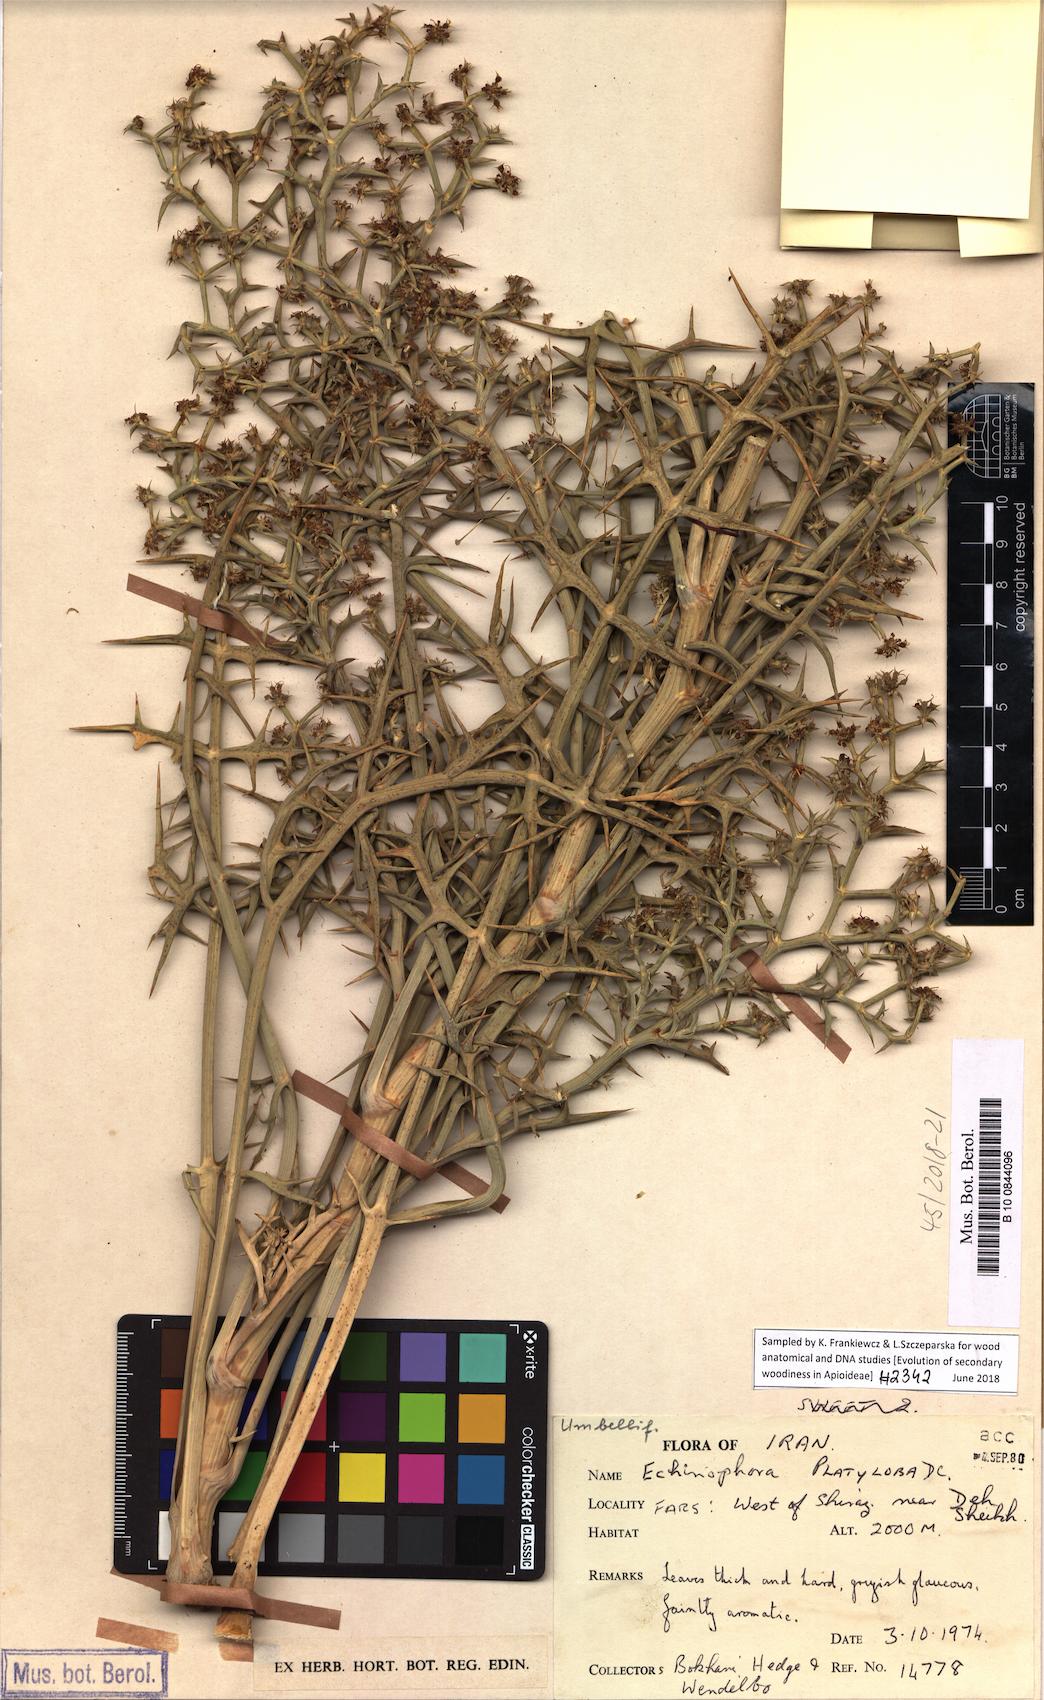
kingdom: Plantae
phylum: Tracheophyta
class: Magnoliopsida
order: Apiales
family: Apiaceae
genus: Echinophora
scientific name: Echinophora platyloba
